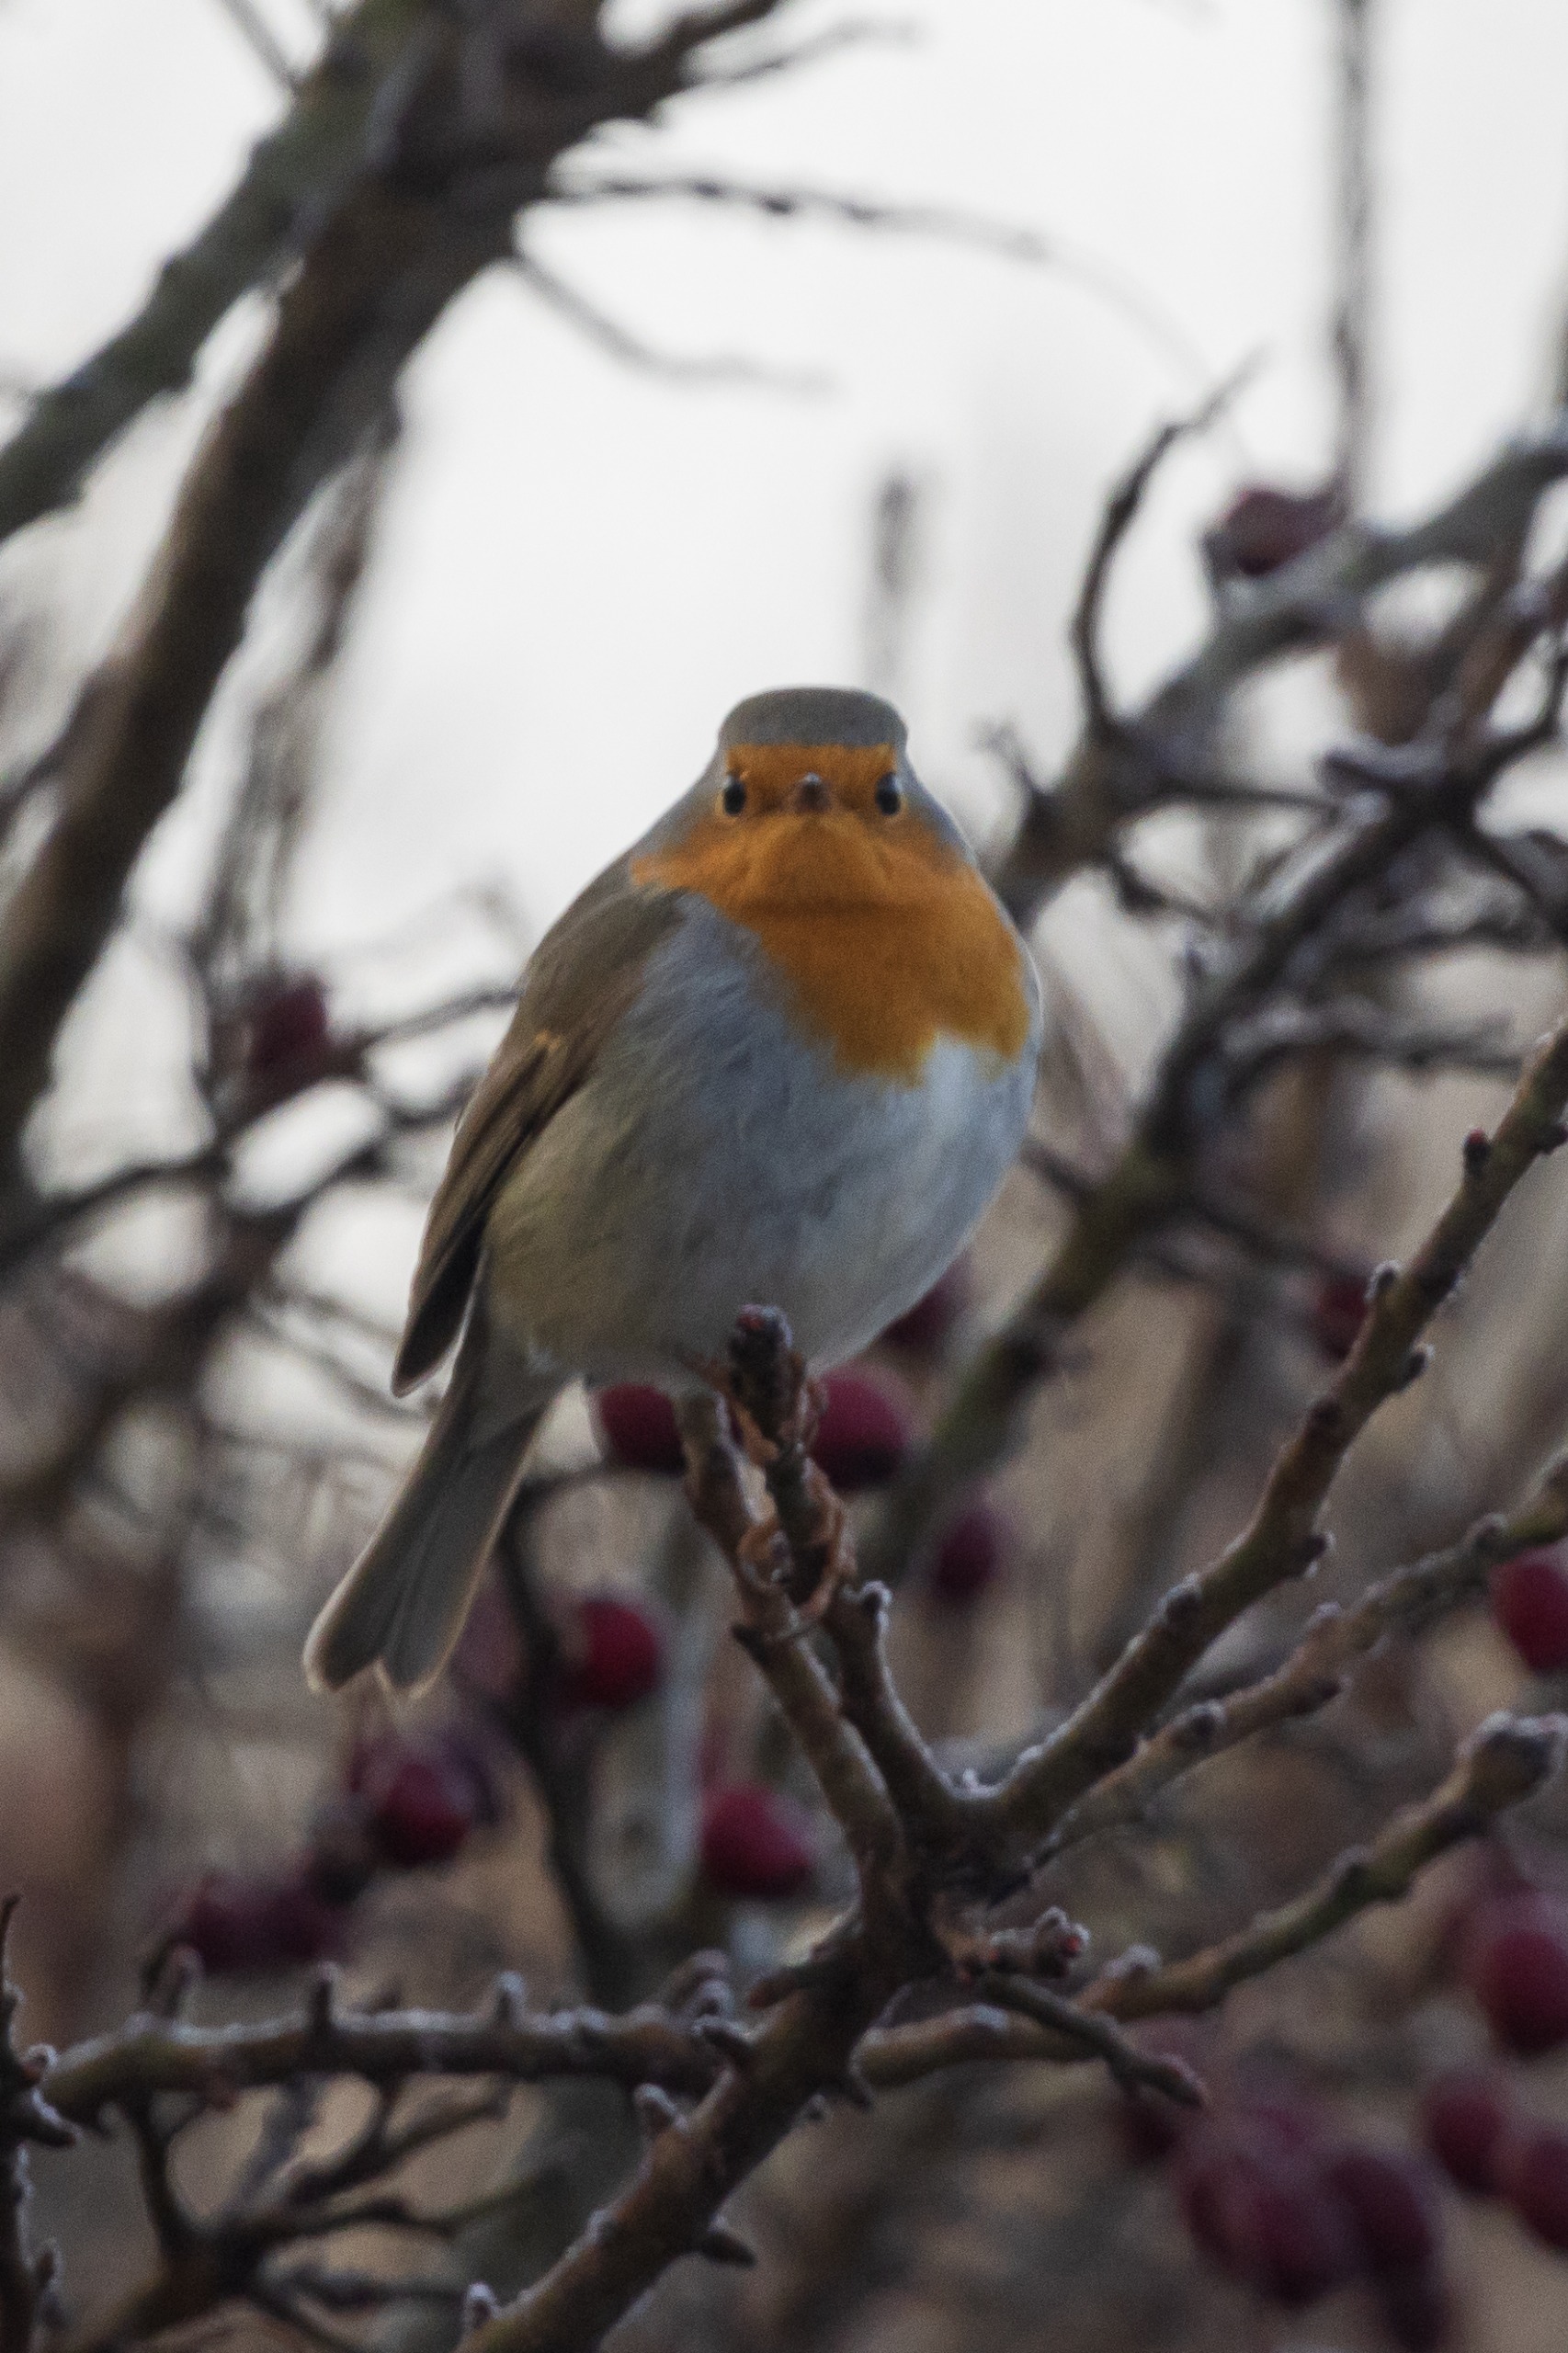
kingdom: Animalia
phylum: Chordata
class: Aves
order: Passeriformes
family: Muscicapidae
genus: Erithacus
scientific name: Erithacus rubecula
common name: Rødhals/rødkælk
